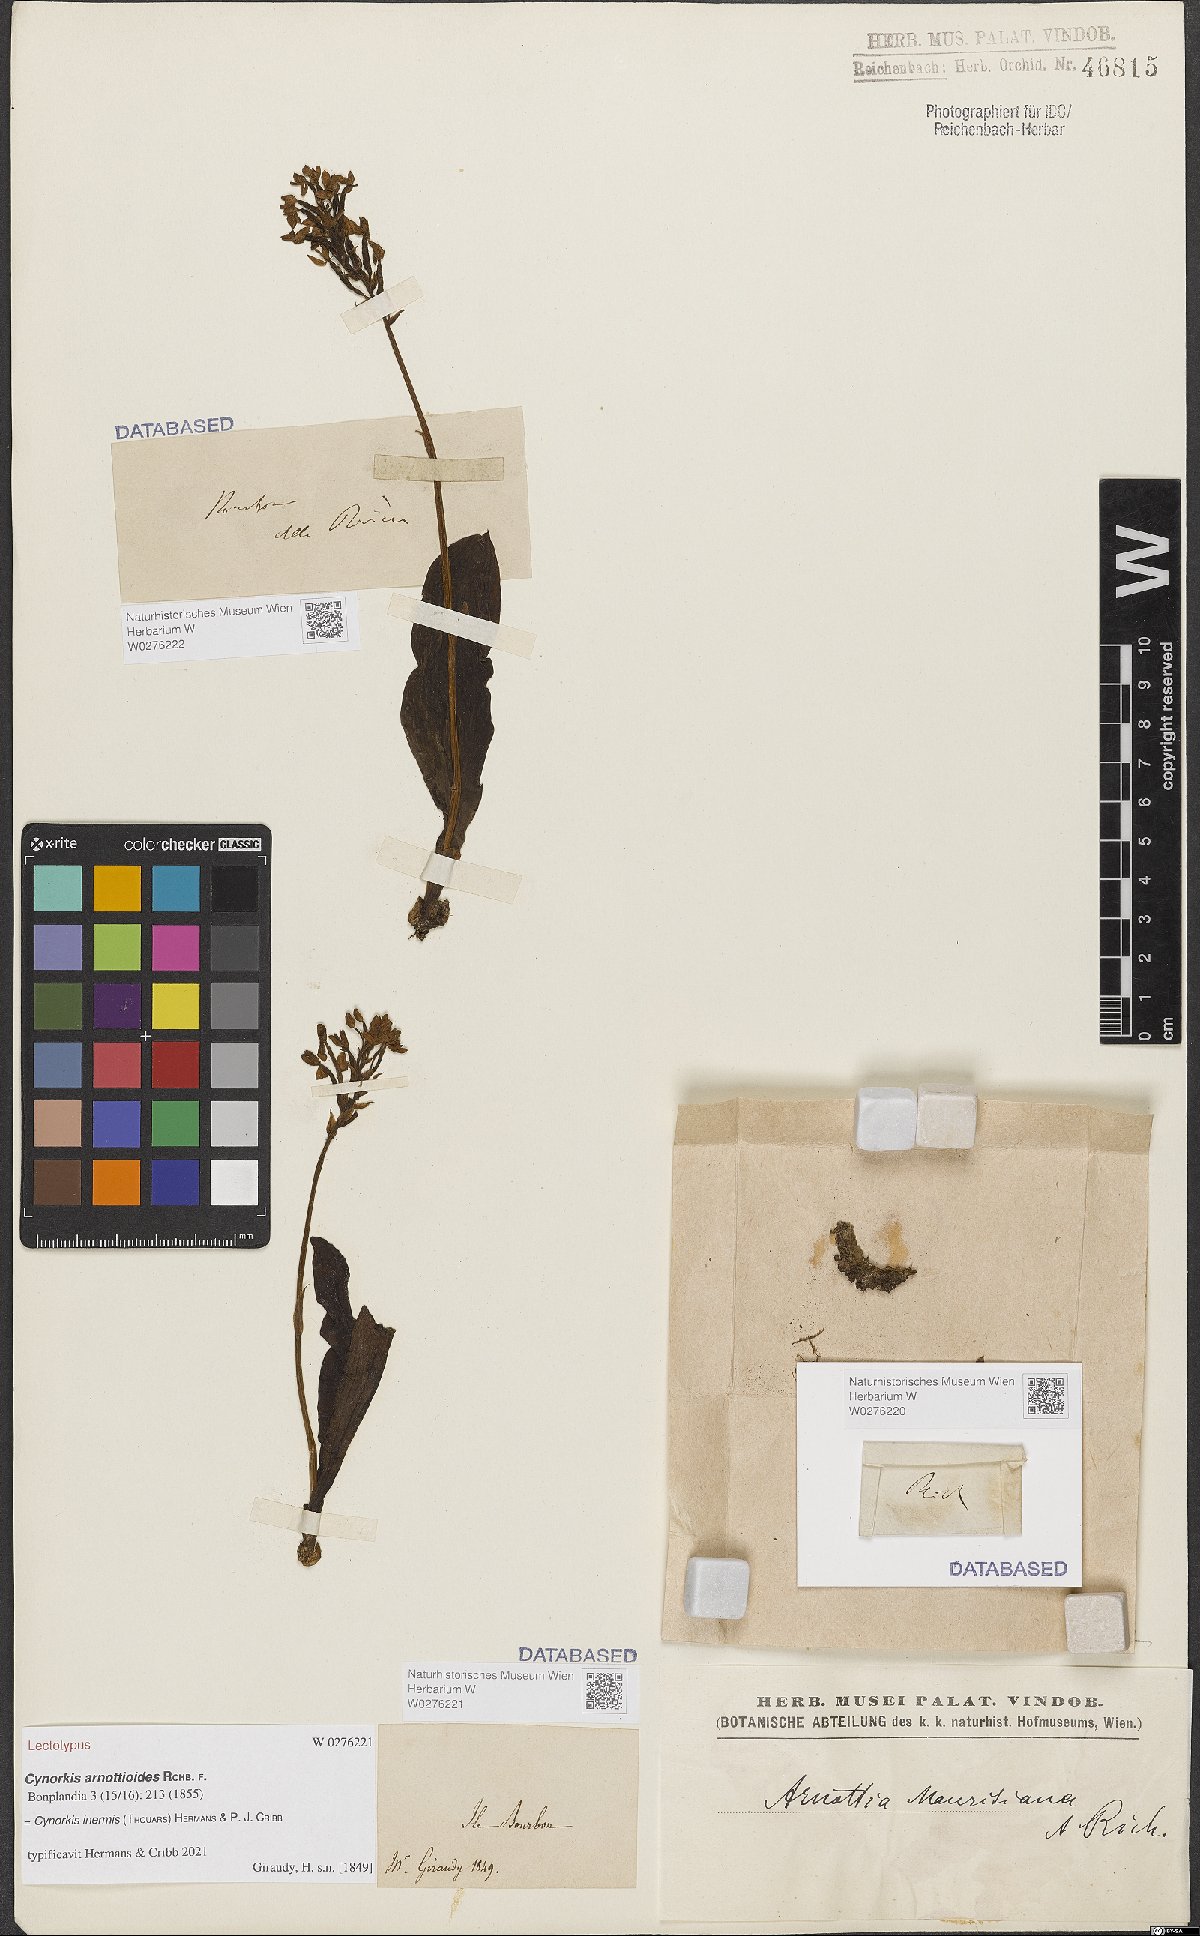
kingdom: Plantae
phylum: Tracheophyta
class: Liliopsida
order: Asparagales
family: Orchidaceae
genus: Cynorkis
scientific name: Cynorkis inermis
